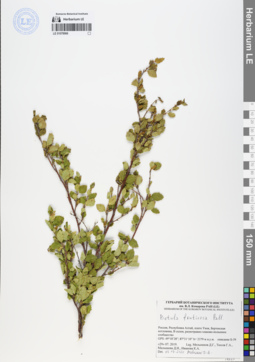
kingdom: Plantae
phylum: Tracheophyta
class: Magnoliopsida
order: Fagales
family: Betulaceae
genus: Betula
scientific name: Betula fruticosa
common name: Japanese bog birch
